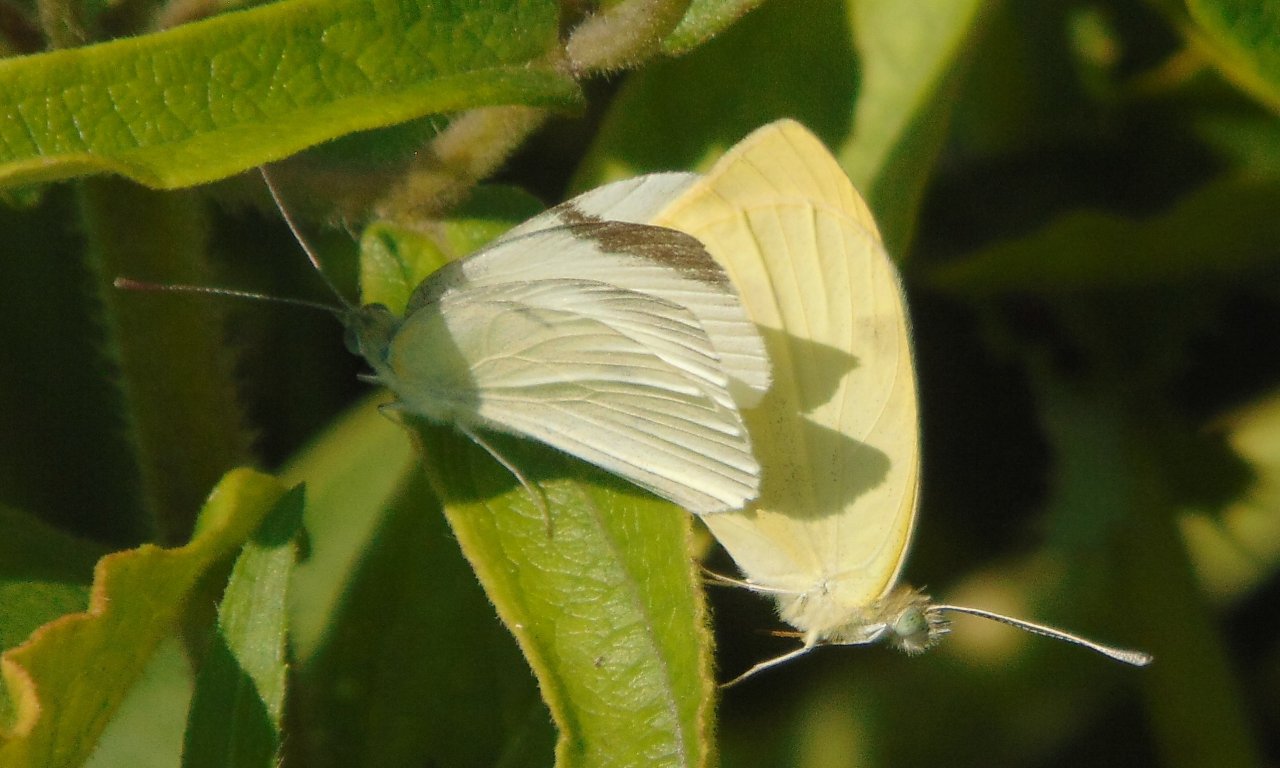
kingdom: Animalia
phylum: Arthropoda
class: Insecta
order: Lepidoptera
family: Pieridae
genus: Pieris
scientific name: Pieris rapae
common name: Cabbage White
